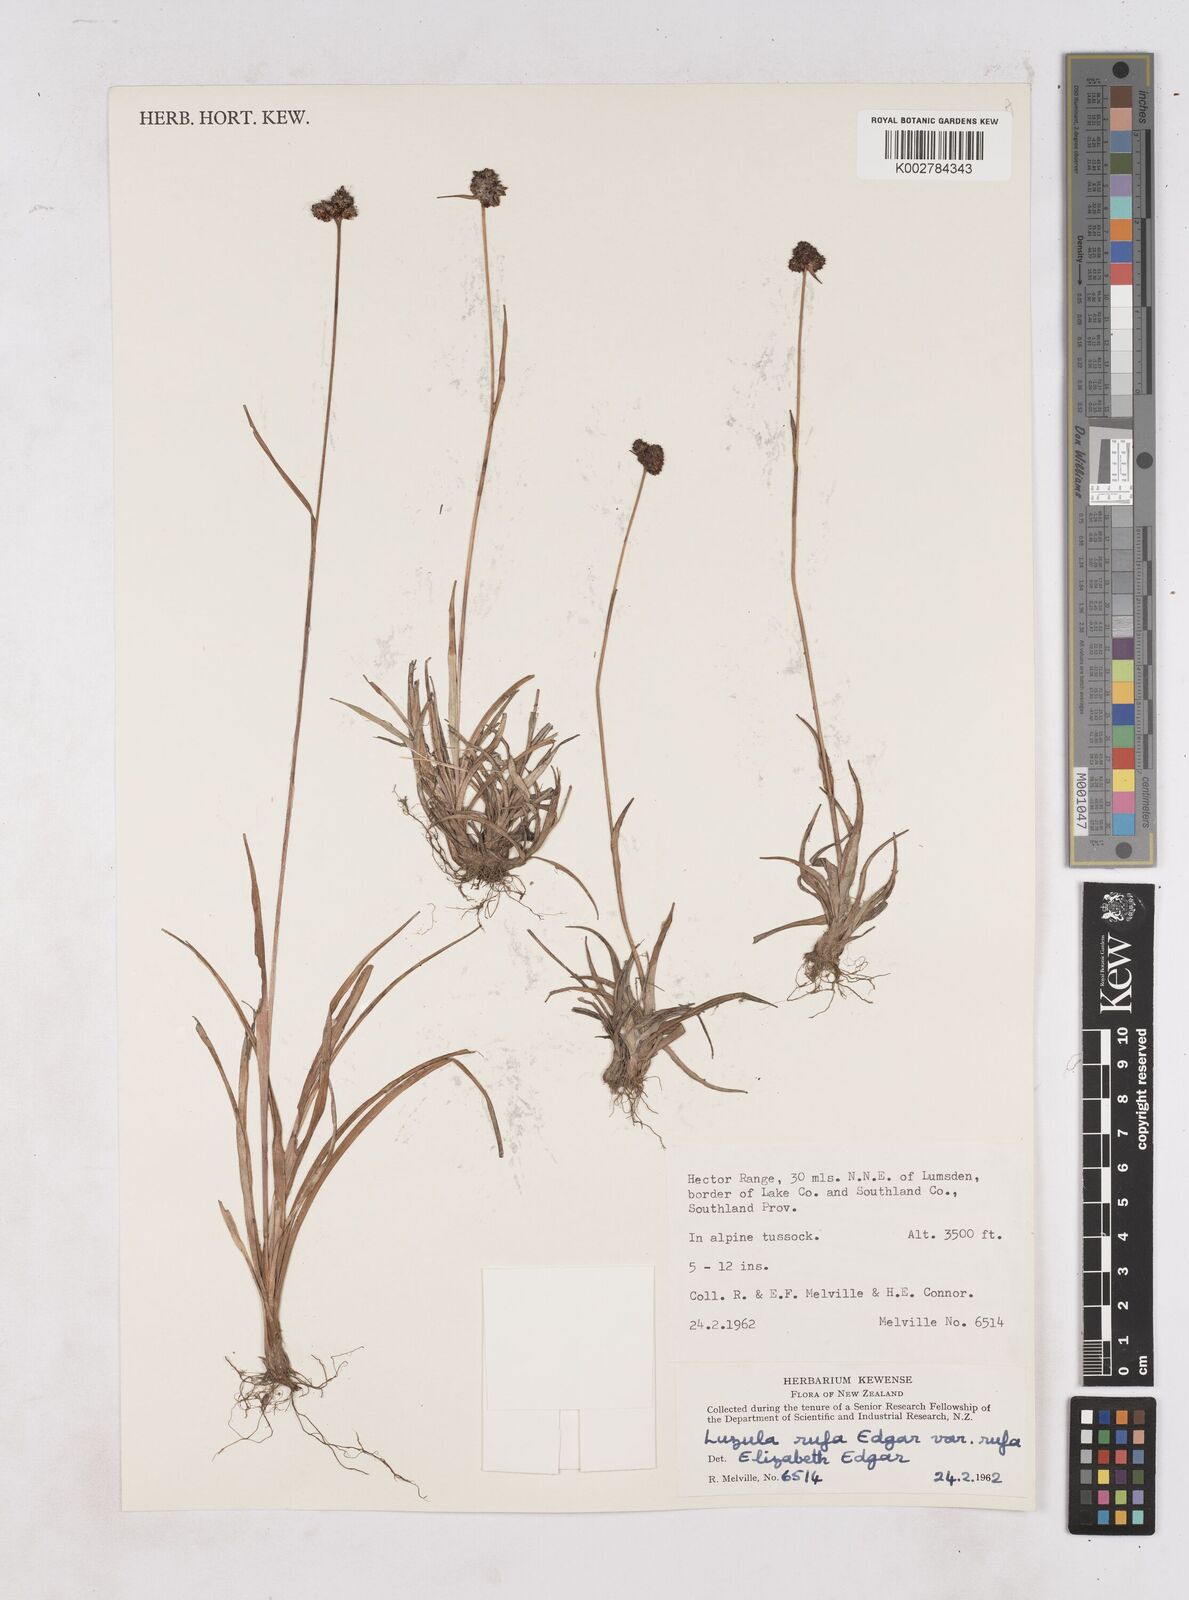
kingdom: Plantae
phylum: Tracheophyta
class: Liliopsida
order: Poales
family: Juncaceae
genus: Luzula
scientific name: Luzula rufa
